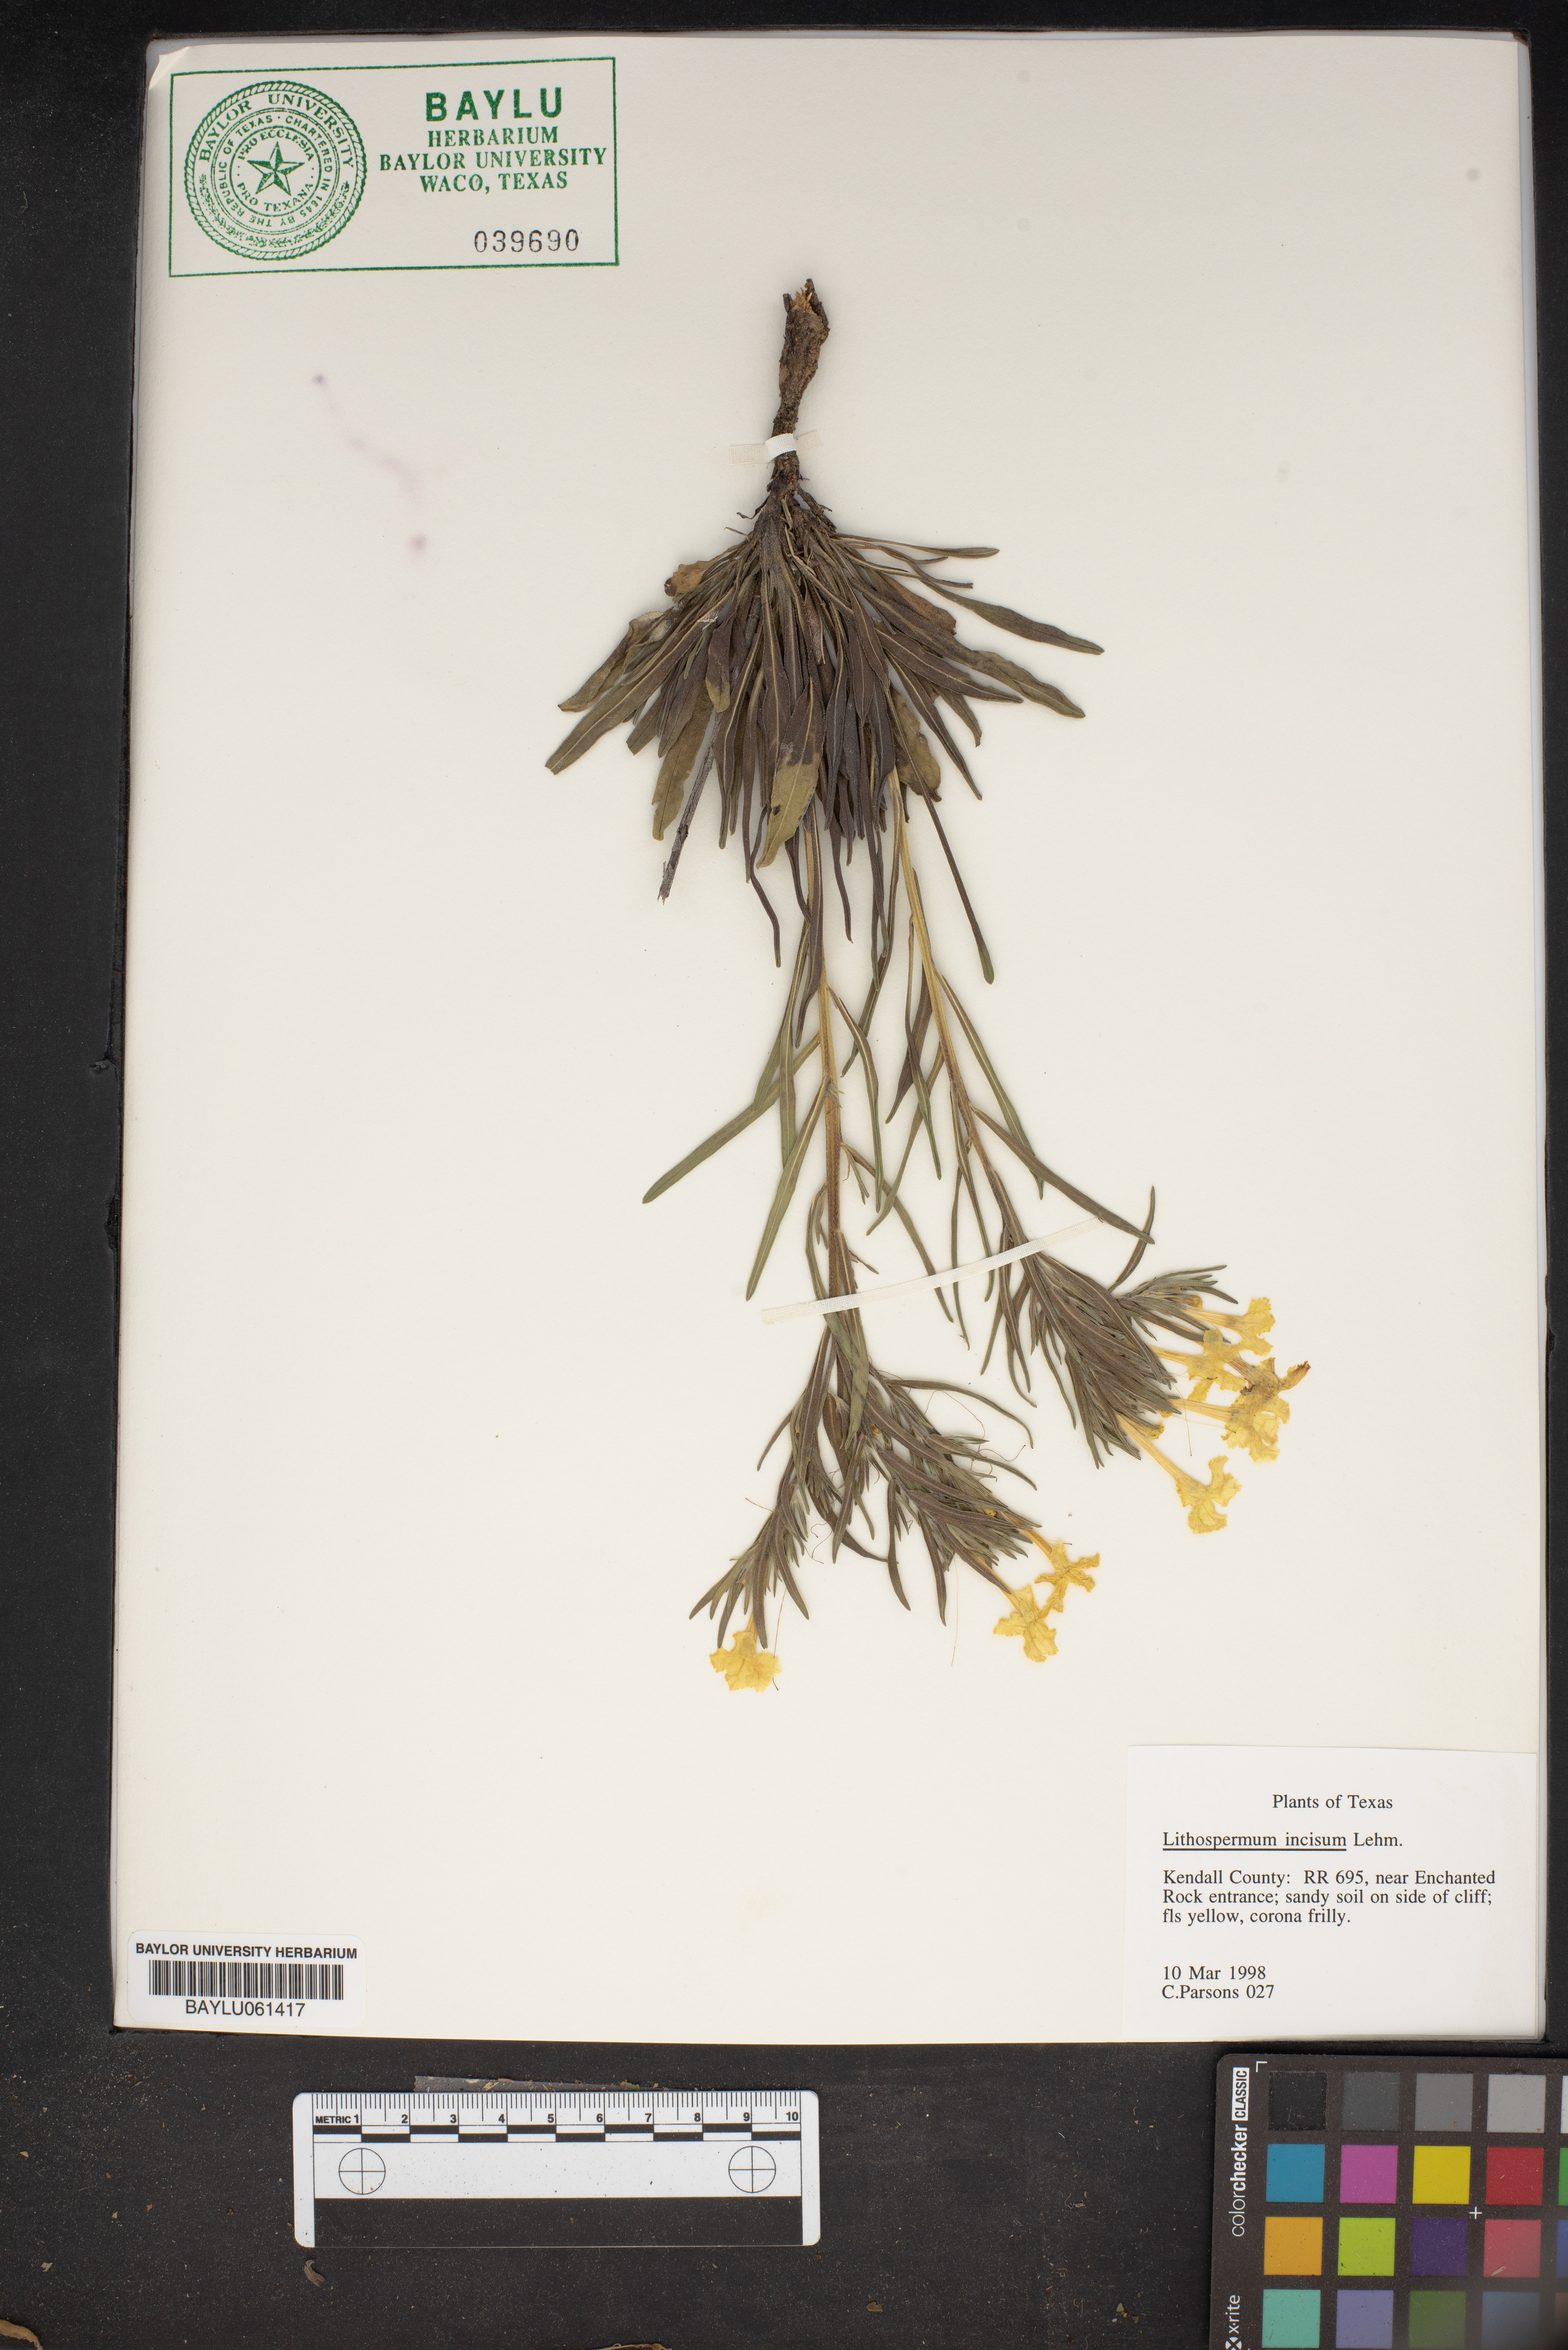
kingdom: Plantae
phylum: Tracheophyta
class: Magnoliopsida
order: Boraginales
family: Boraginaceae
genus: Lithospermum
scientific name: Lithospermum incisum
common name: Fringed gromwell
